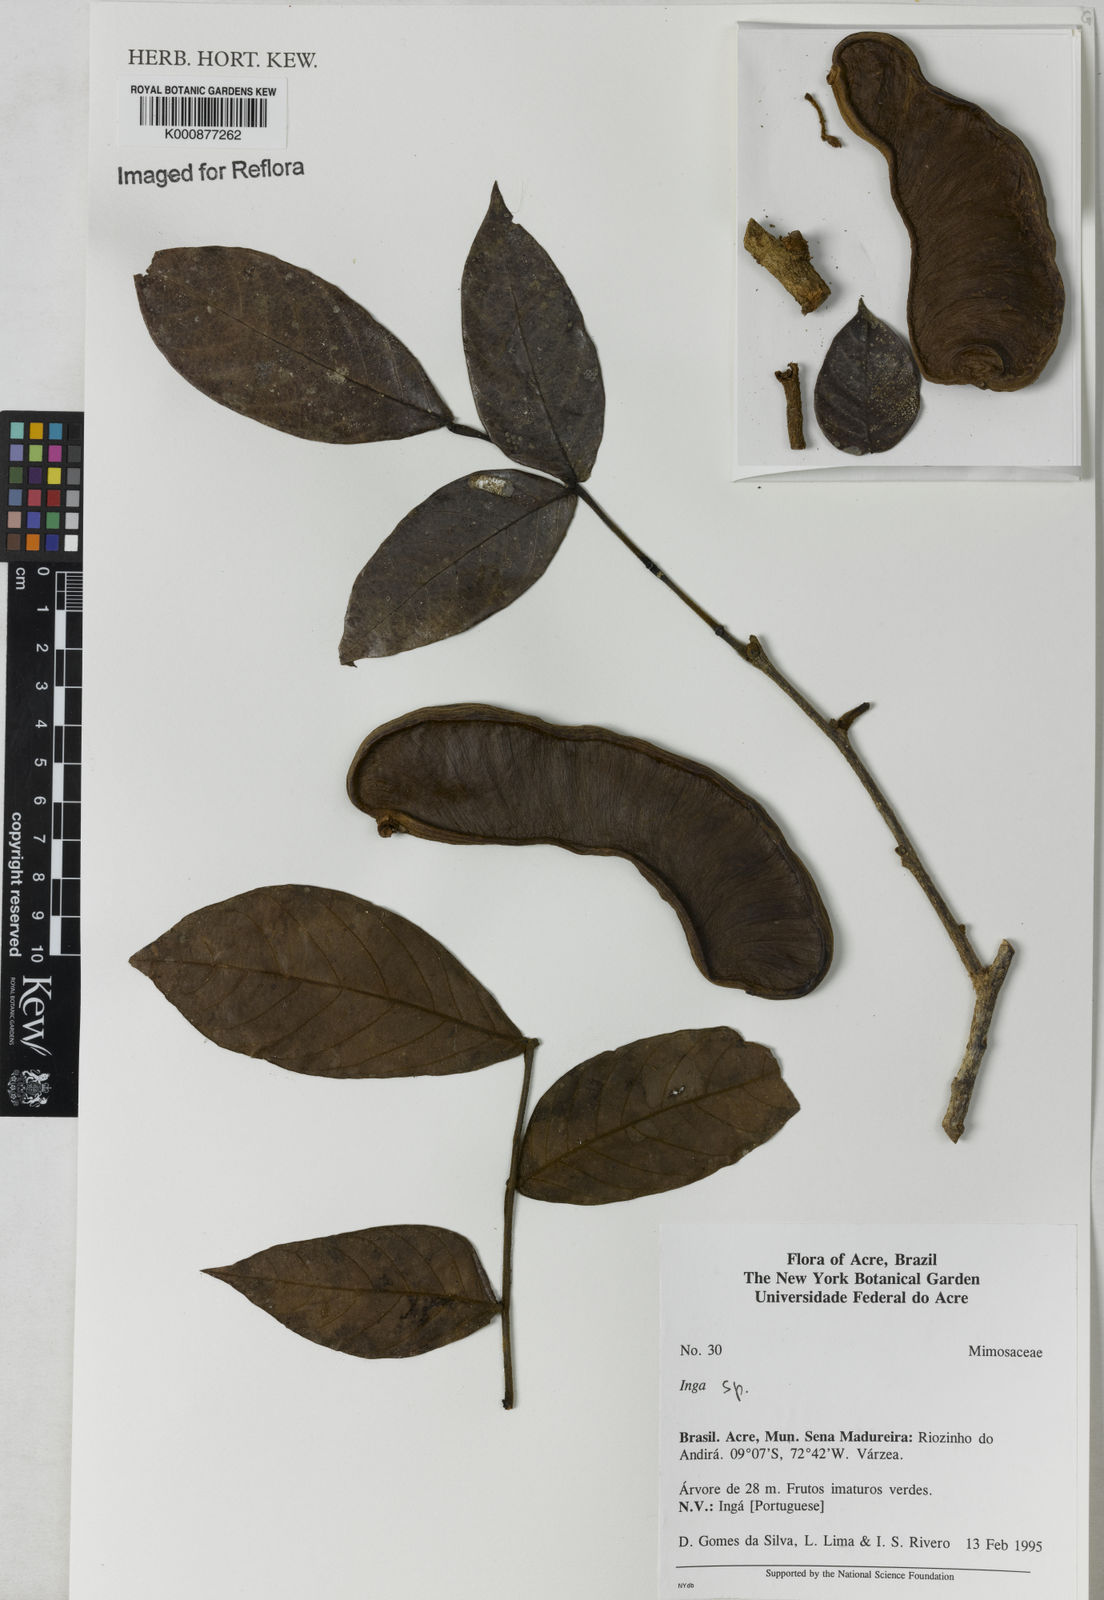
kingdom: Plantae
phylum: Tracheophyta
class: Magnoliopsida
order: Fabales
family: Fabaceae
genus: Inga
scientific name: Inga
